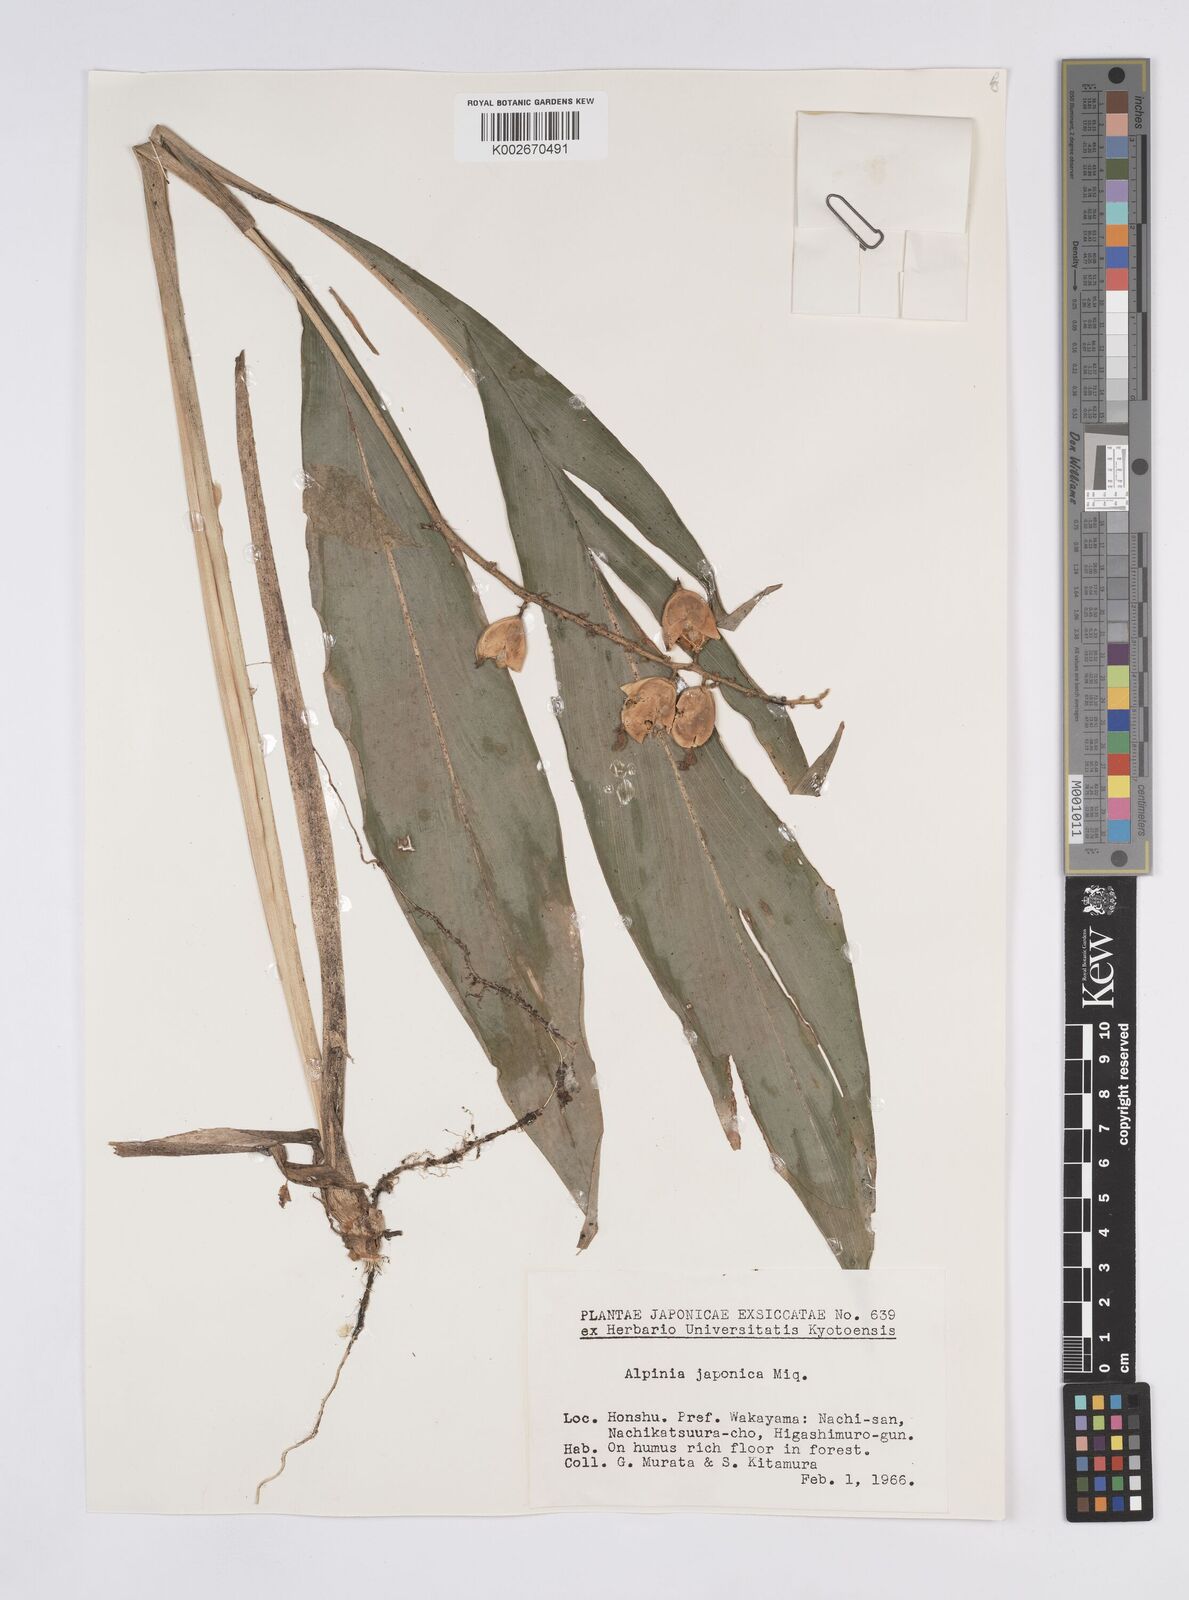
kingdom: Plantae
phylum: Tracheophyta
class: Liliopsida
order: Zingiberales
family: Zingiberaceae
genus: Alpinia
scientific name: Alpinia japonica
